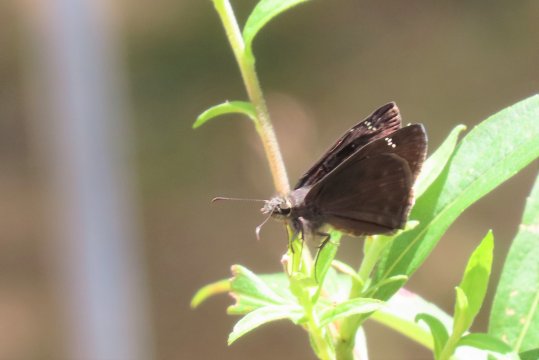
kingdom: Animalia
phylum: Arthropoda
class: Insecta
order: Lepidoptera
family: Hesperiidae
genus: Gesta
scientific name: Gesta
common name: Horace's Duskywing
